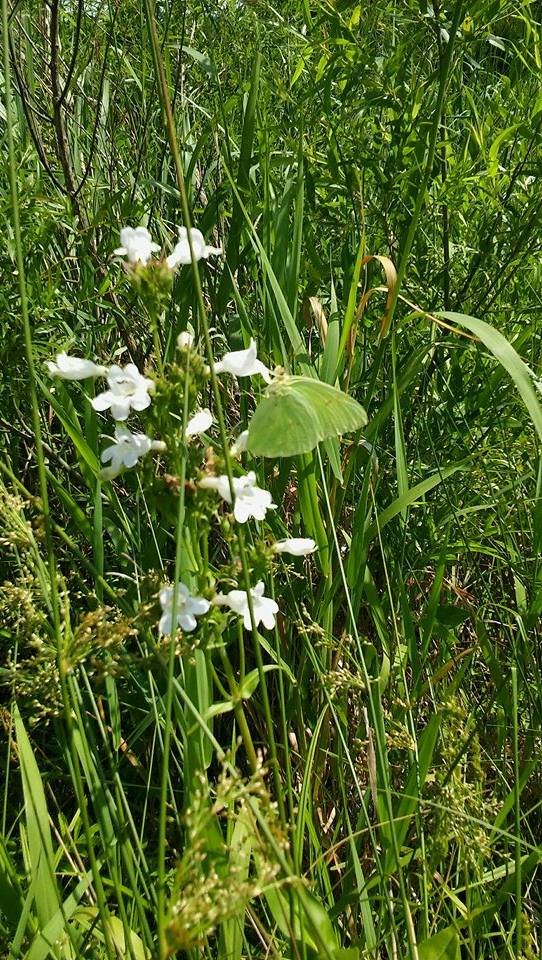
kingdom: Animalia
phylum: Arthropoda
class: Insecta
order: Lepidoptera
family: Pieridae
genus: Phoebis
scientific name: Phoebis sennae
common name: Cloudless Sulphur
